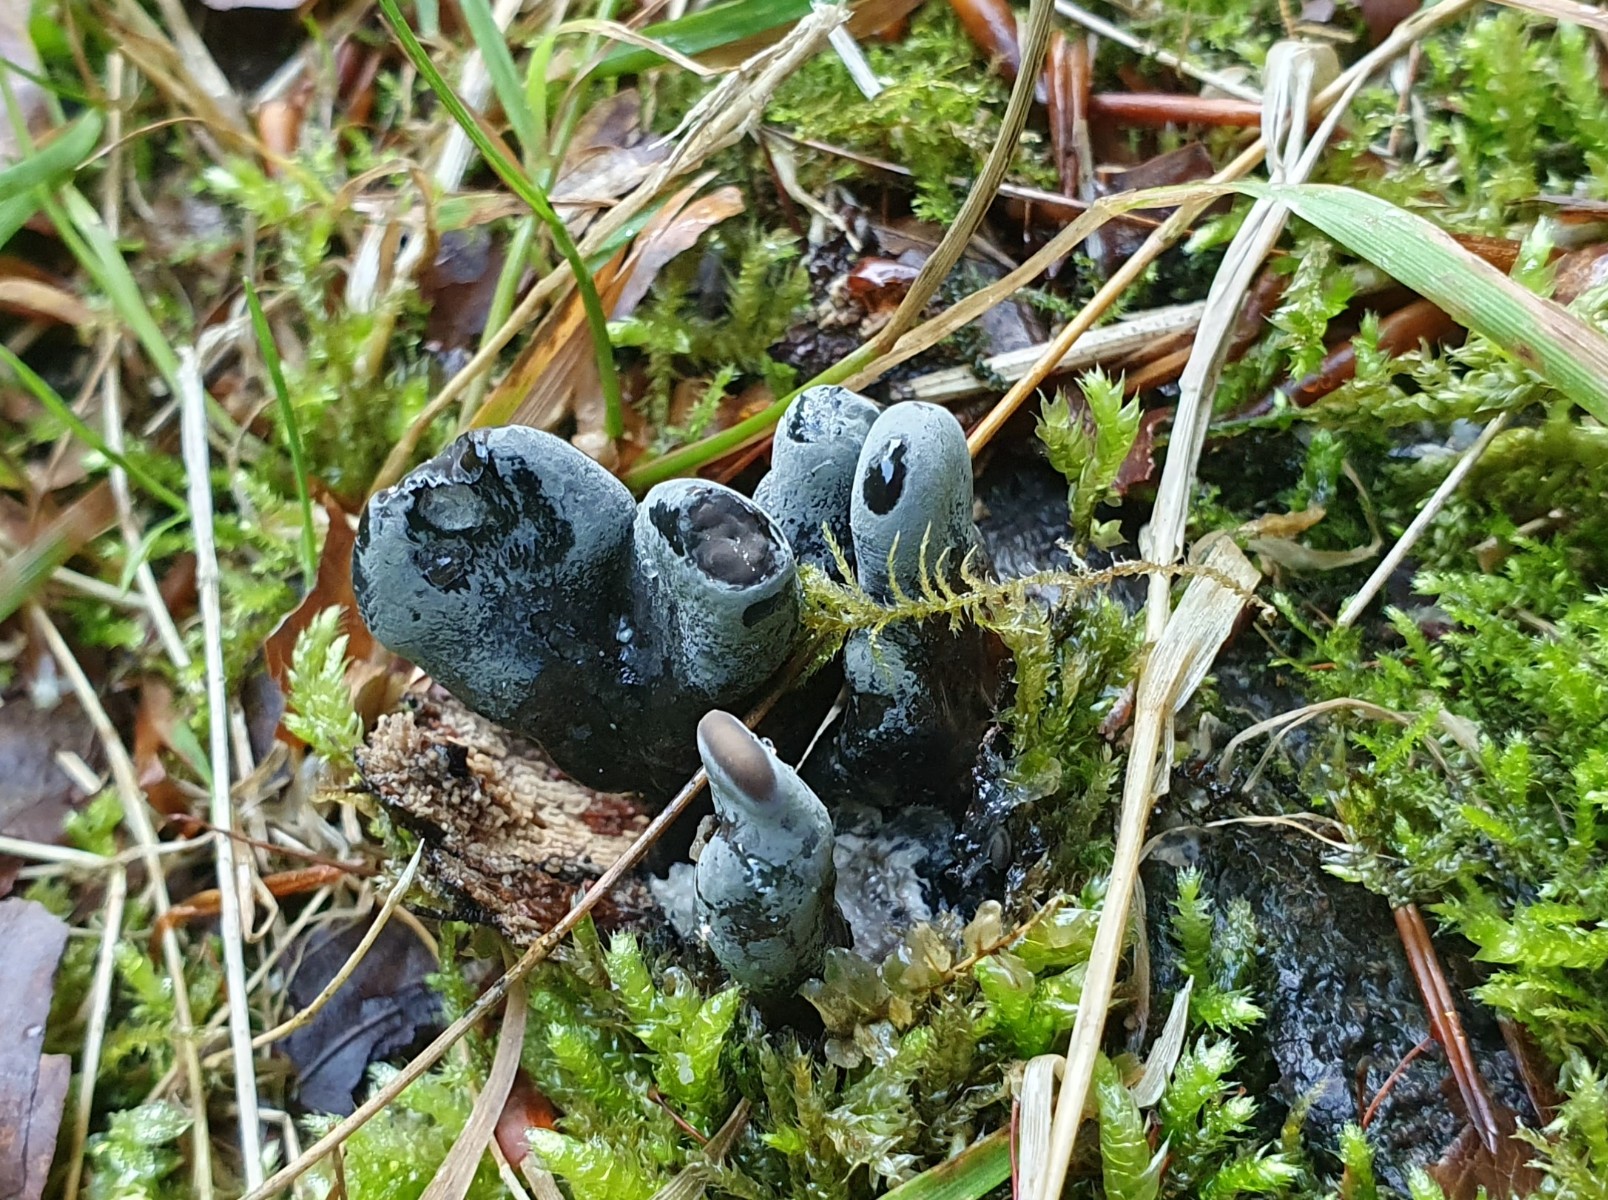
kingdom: Fungi
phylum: Ascomycota
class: Sordariomycetes
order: Xylariales
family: Xylariaceae
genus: Xylaria
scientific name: Xylaria polymorpha
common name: kølle-stødsvamp
